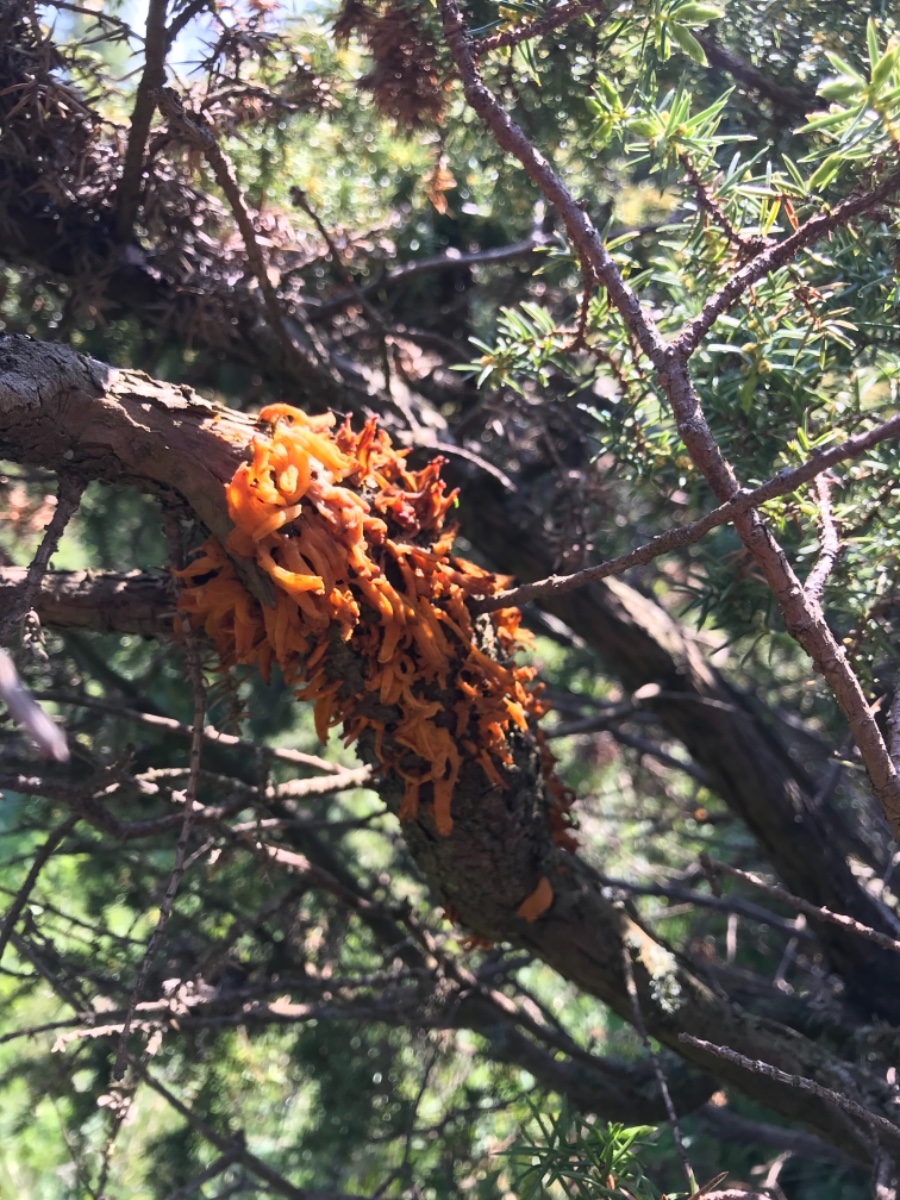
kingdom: Fungi
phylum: Basidiomycota
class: Pucciniomycetes
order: Pucciniales
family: Gymnosporangiaceae
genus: Gymnosporangium
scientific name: Gymnosporangium clavariiforme
